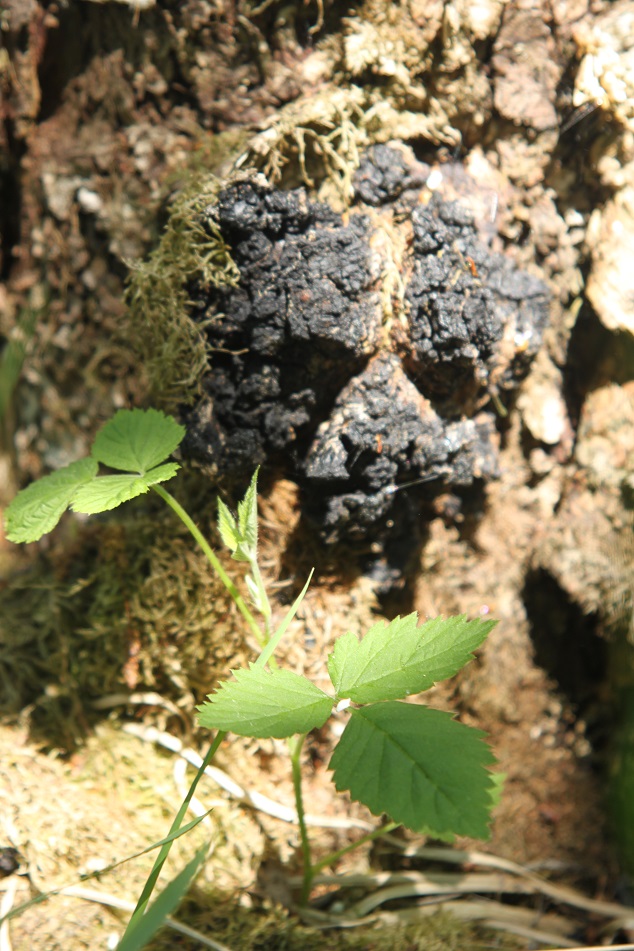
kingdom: Fungi
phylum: Basidiomycota
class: Agaricomycetes
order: Hymenochaetales
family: Hymenochaetaceae
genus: Inonotus
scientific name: Inonotus obliquus
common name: birke-spejlporesvamp
